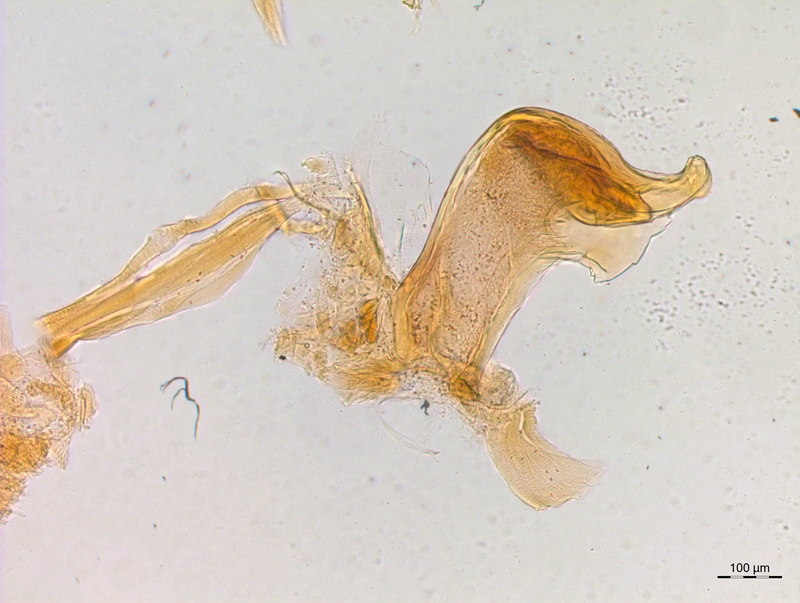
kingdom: Animalia
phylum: Arthropoda
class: Diplopoda
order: Chordeumatida
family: Craspedosomatidae
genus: Craspedosoma
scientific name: Craspedosoma rawlinsii
